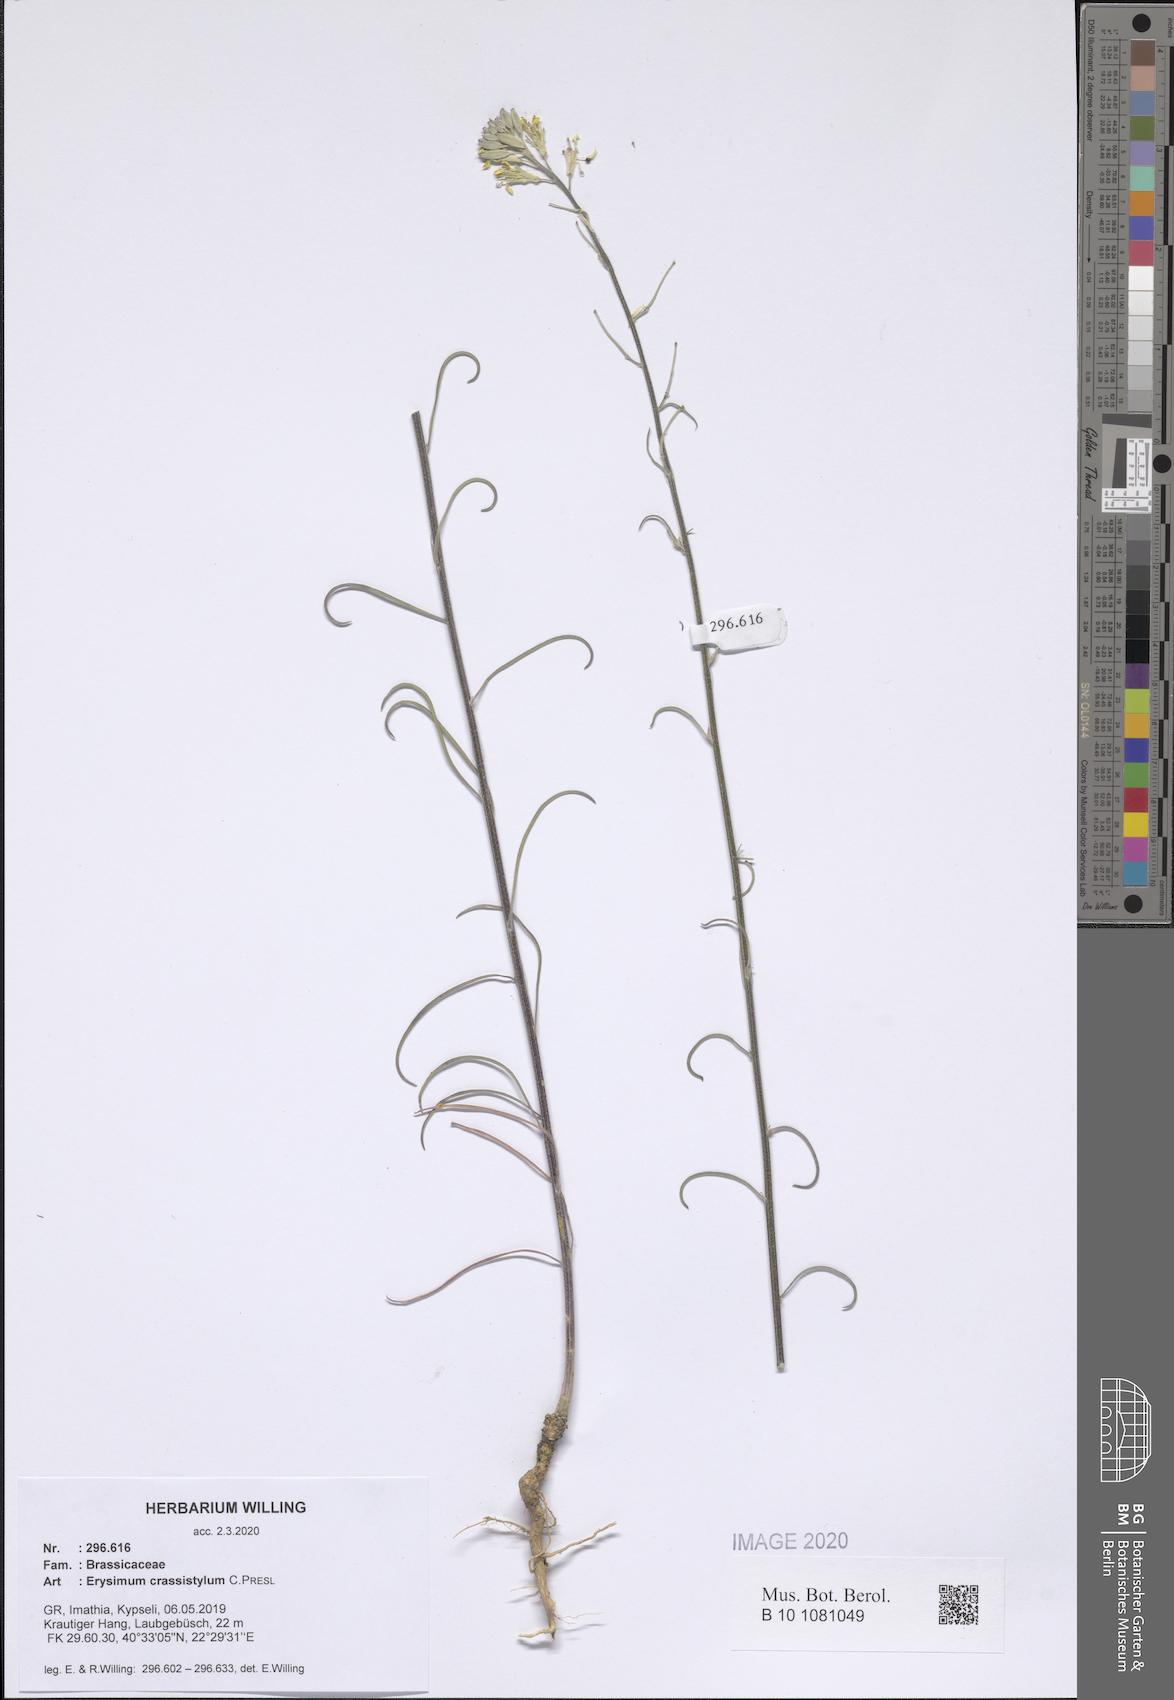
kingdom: Plantae
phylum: Tracheophyta
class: Magnoliopsida
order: Brassicales
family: Brassicaceae
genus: Erysimum
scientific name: Erysimum crassistylum
